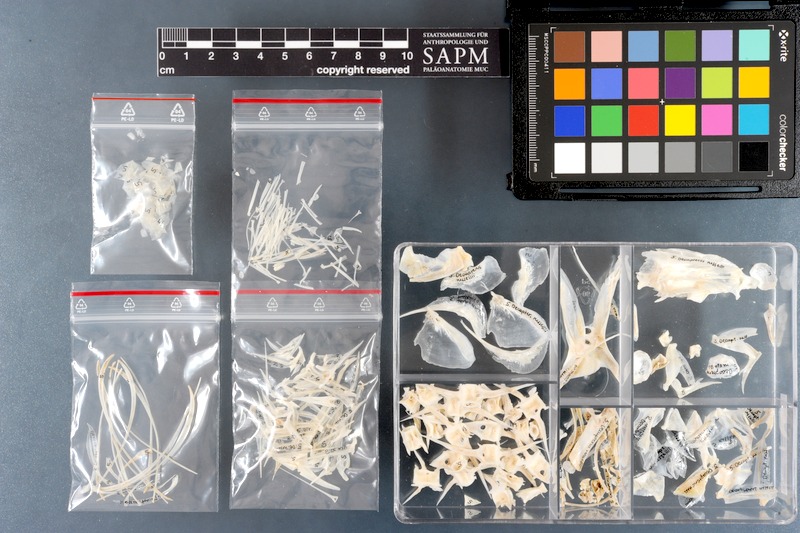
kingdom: Animalia
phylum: Chordata
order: Perciformes
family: Carangidae
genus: Decapterus
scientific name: Decapterus russelli
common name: Indian scad
